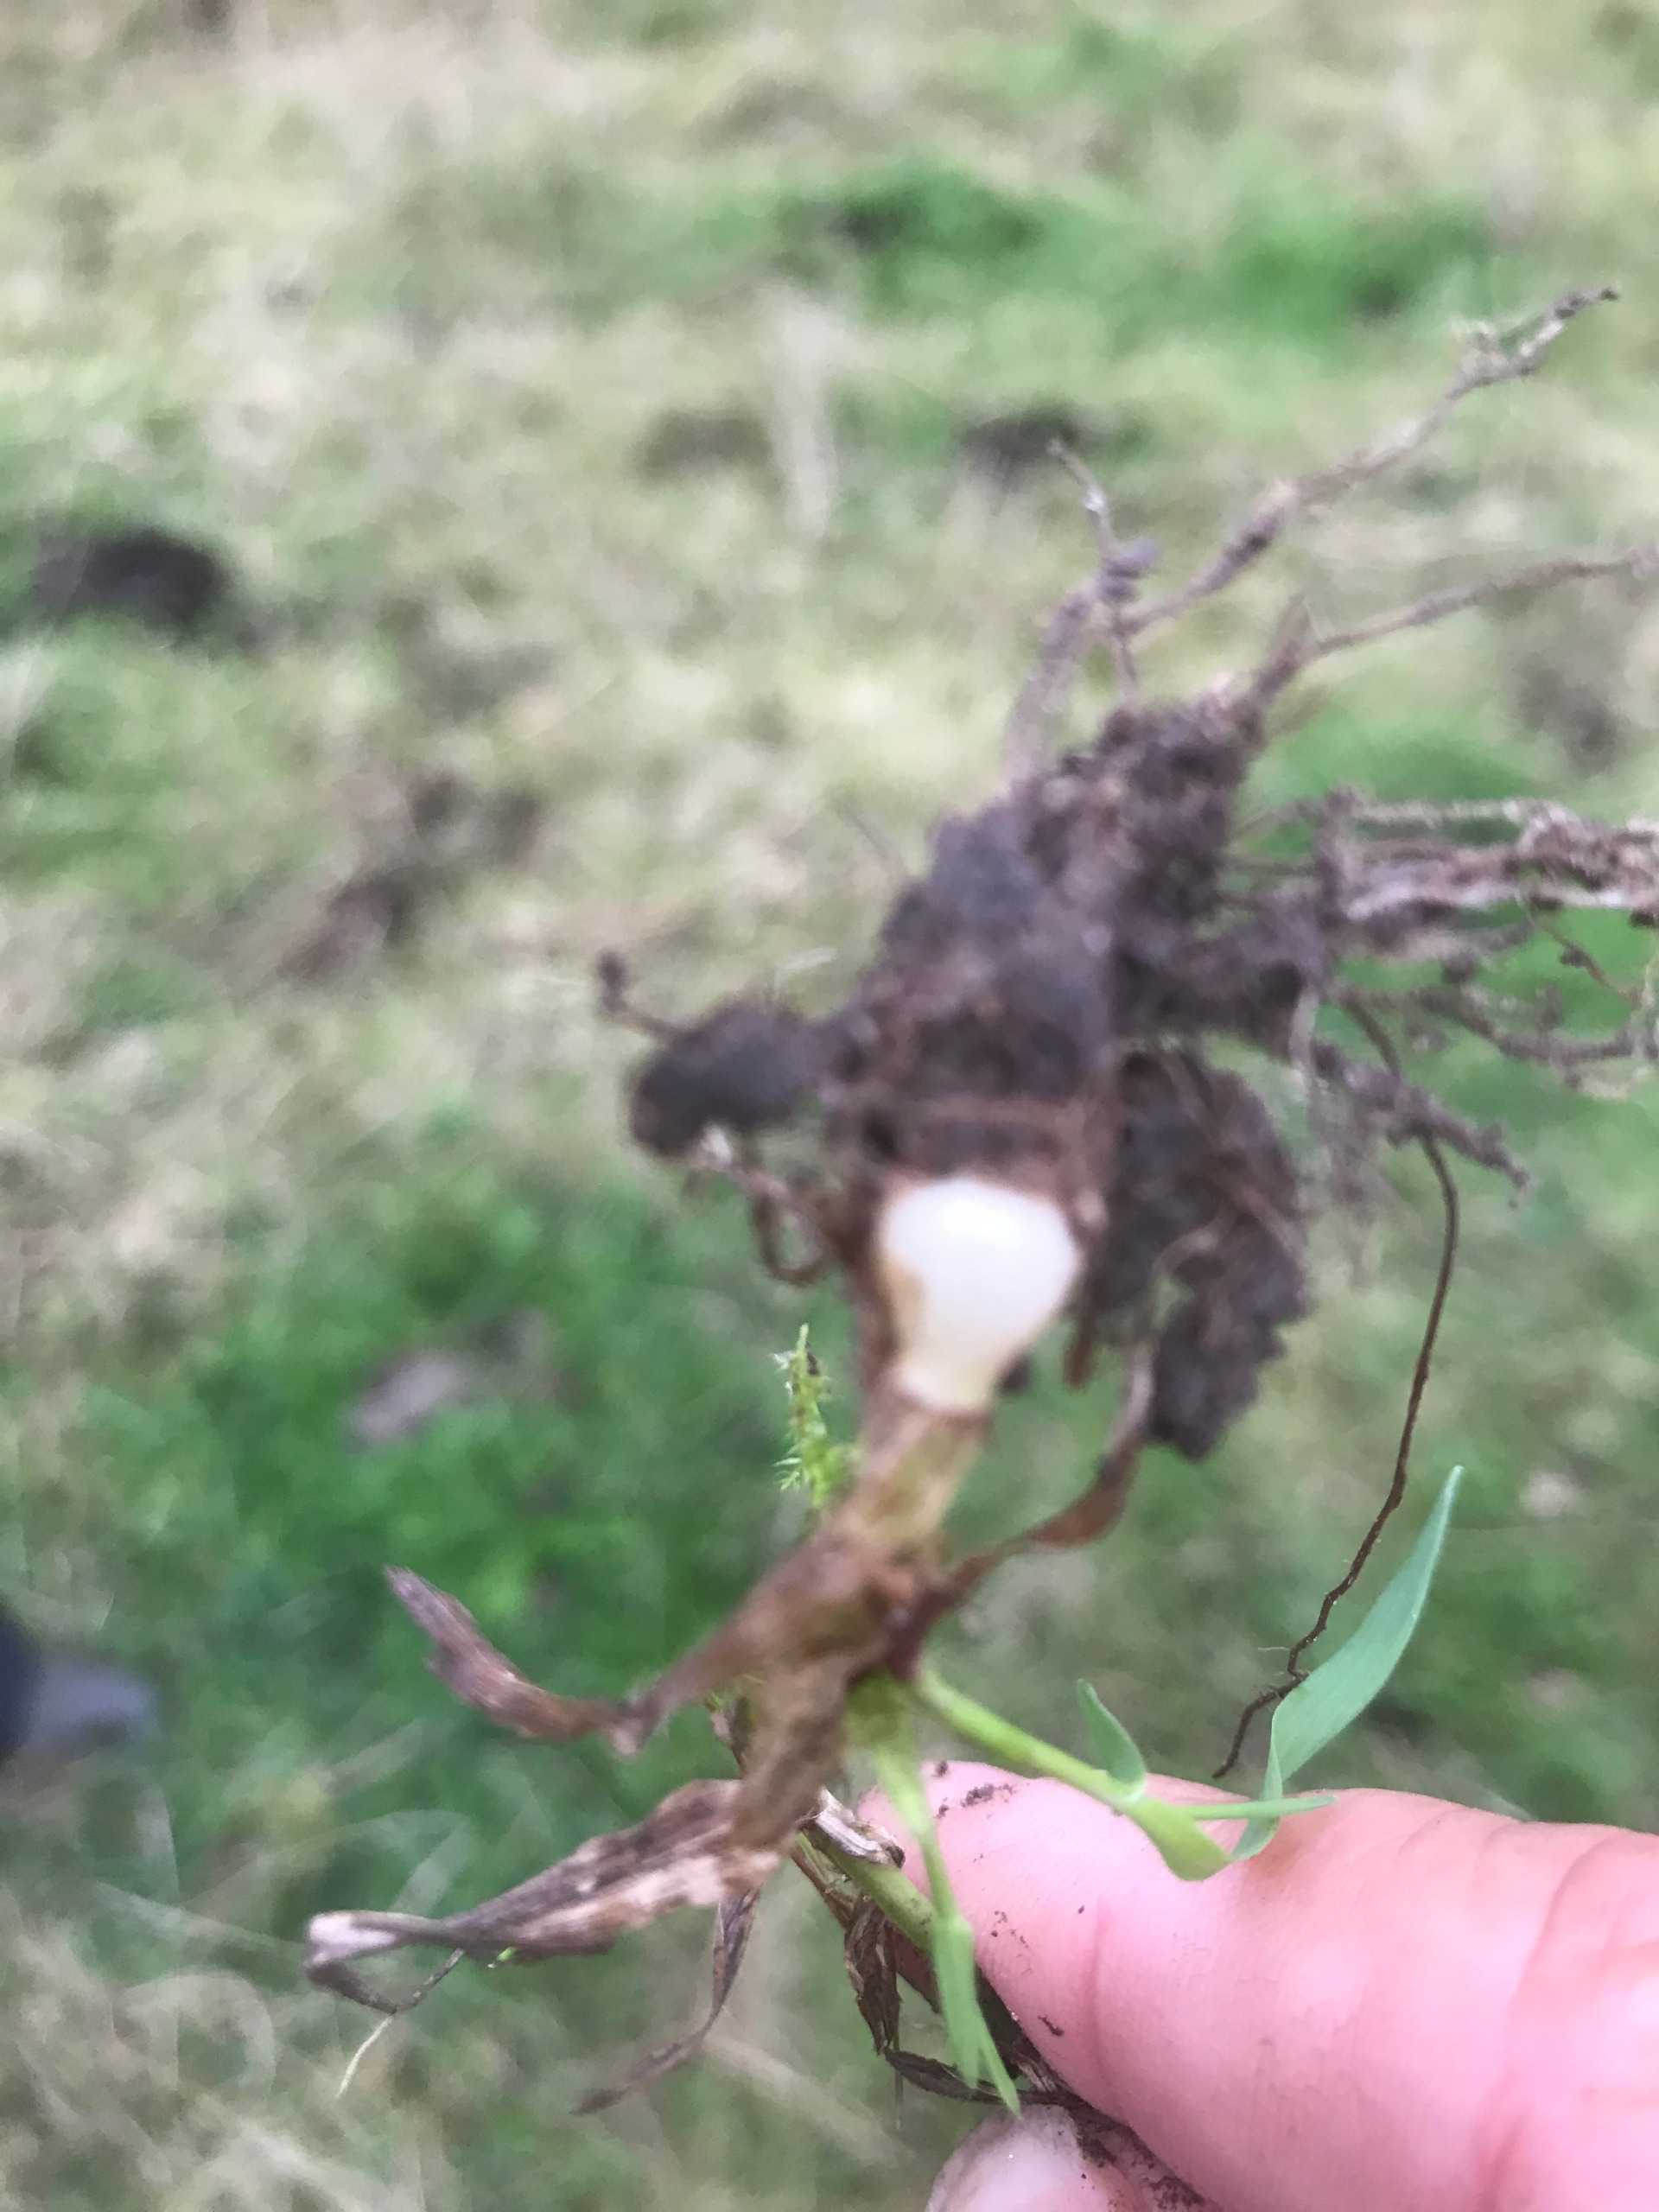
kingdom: Plantae
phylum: Tracheophyta
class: Liliopsida
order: Poales
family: Poaceae
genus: Phleum
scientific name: Phleum pratense
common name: Knold-rottehale
